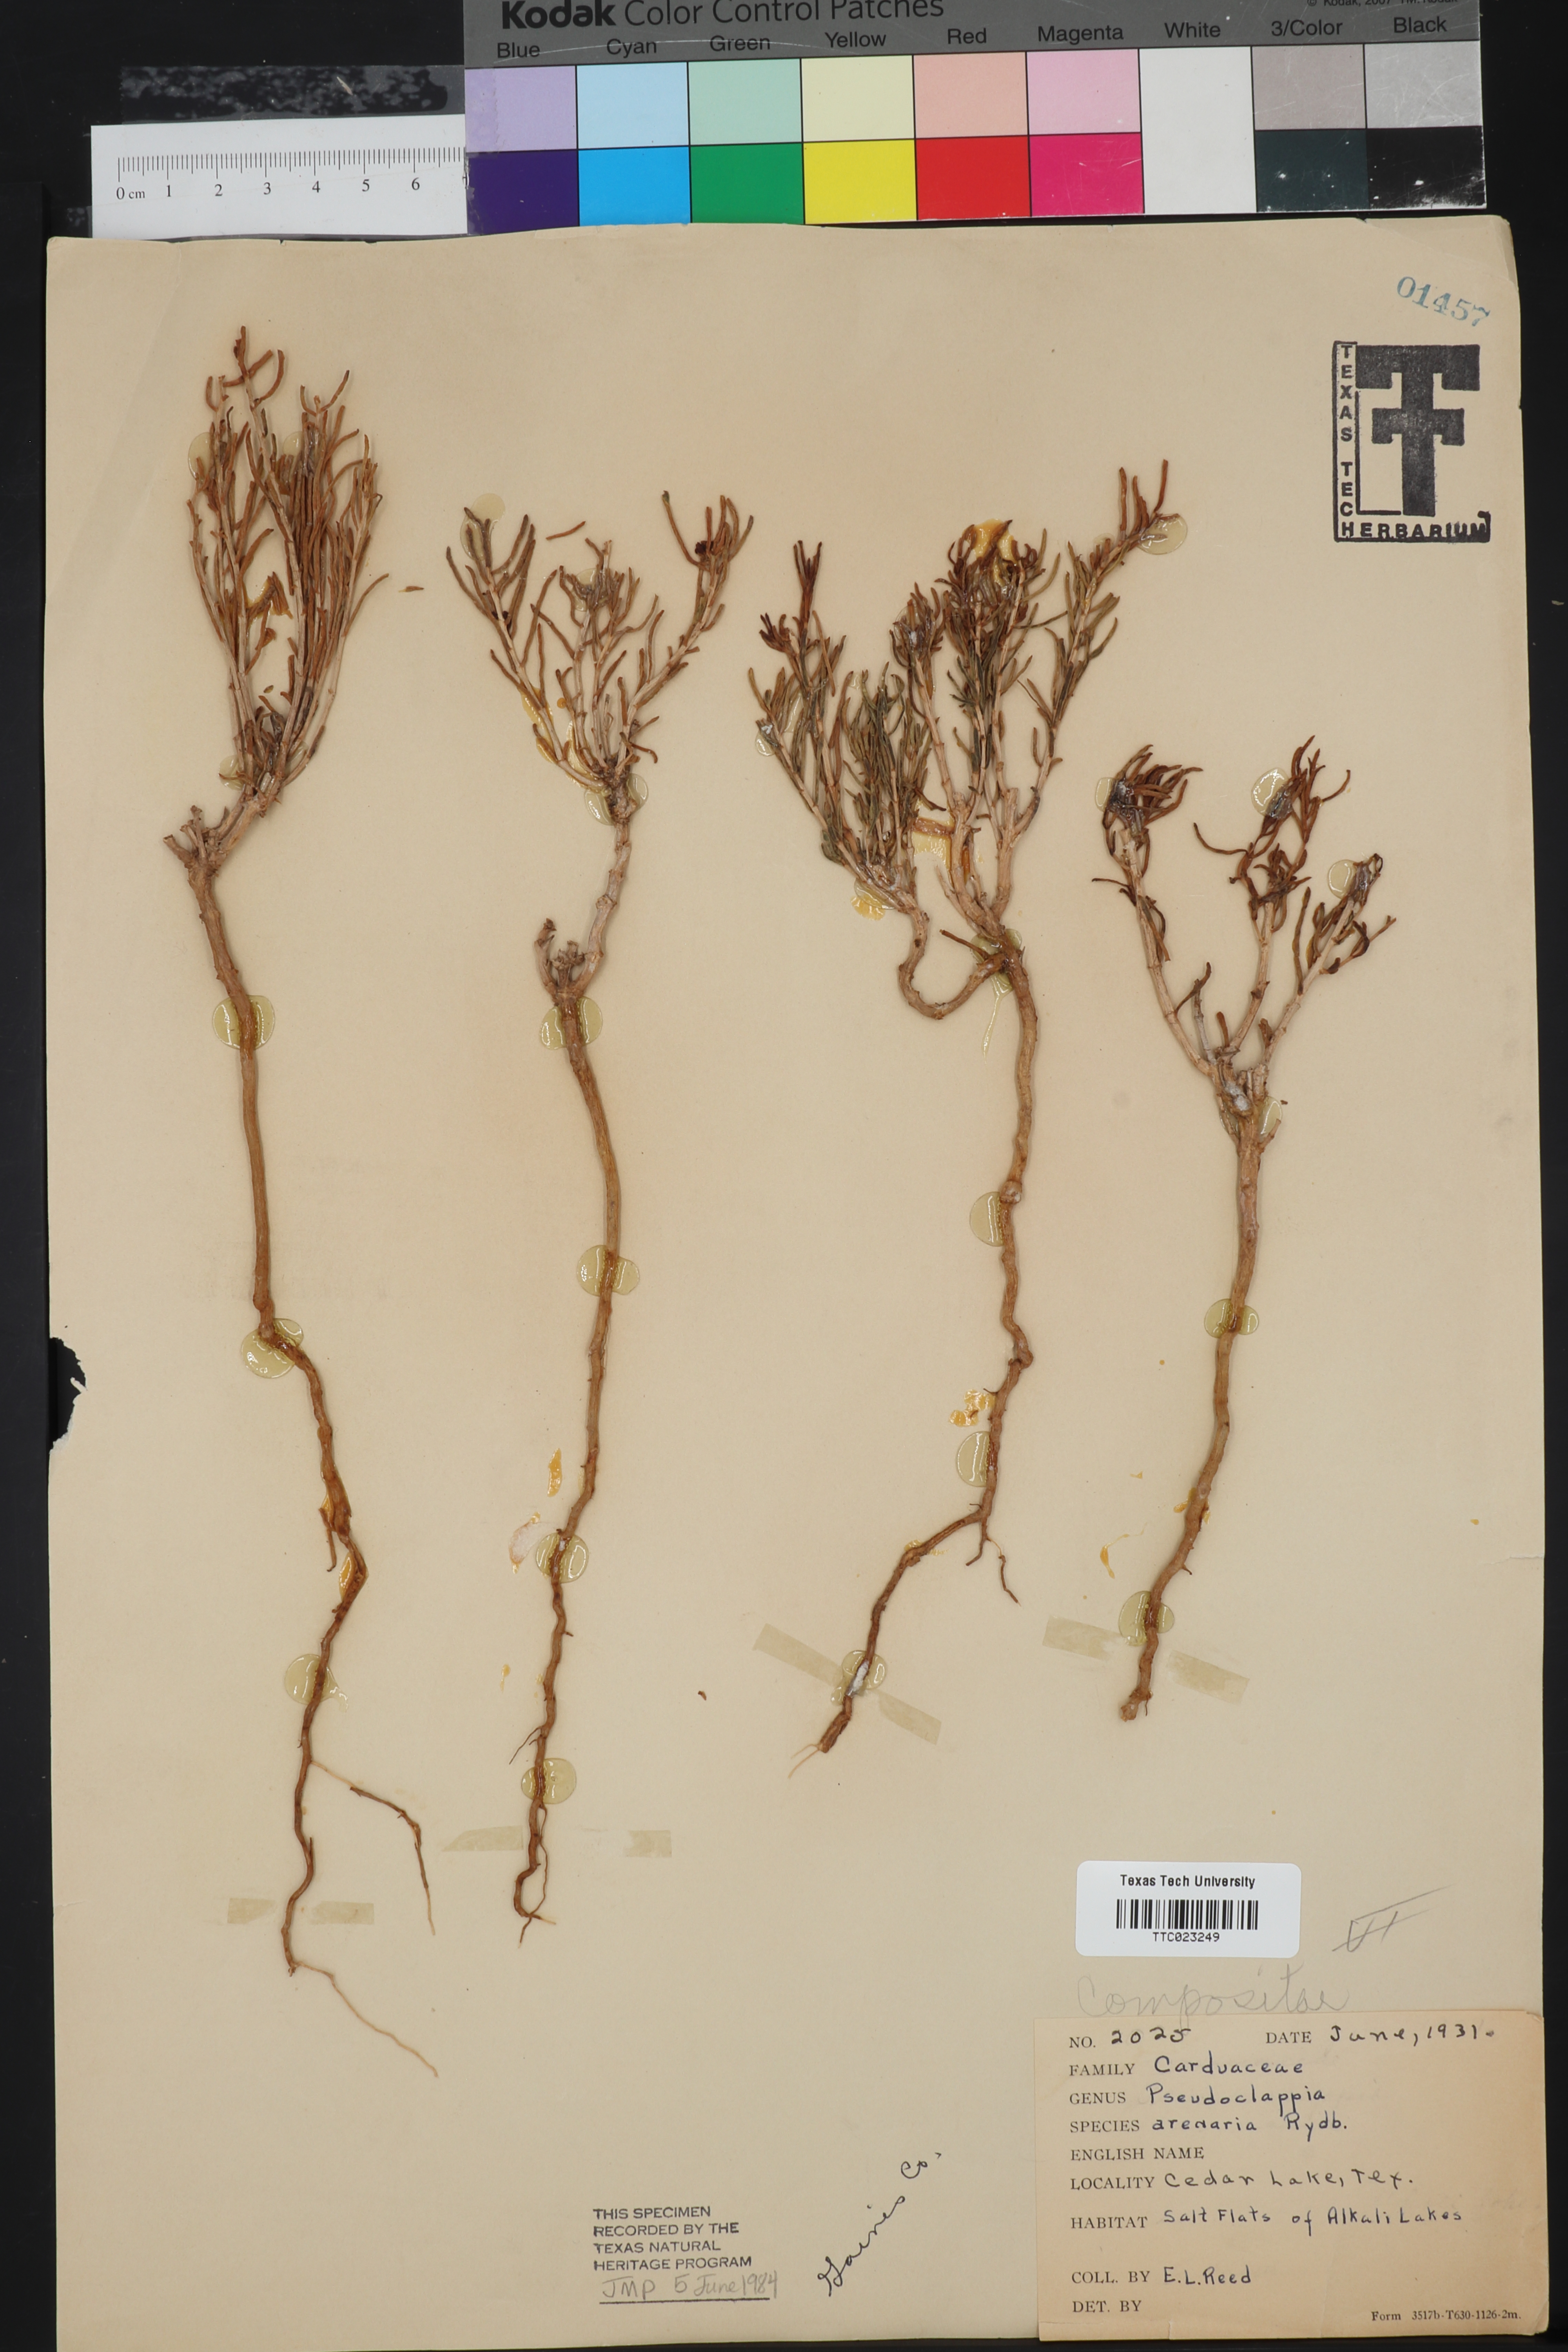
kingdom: Plantae
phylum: Tracheophyta
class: Magnoliopsida
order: Asterales
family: Asteraceae
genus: Pseudoclappia
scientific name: Pseudoclappia arenaria
